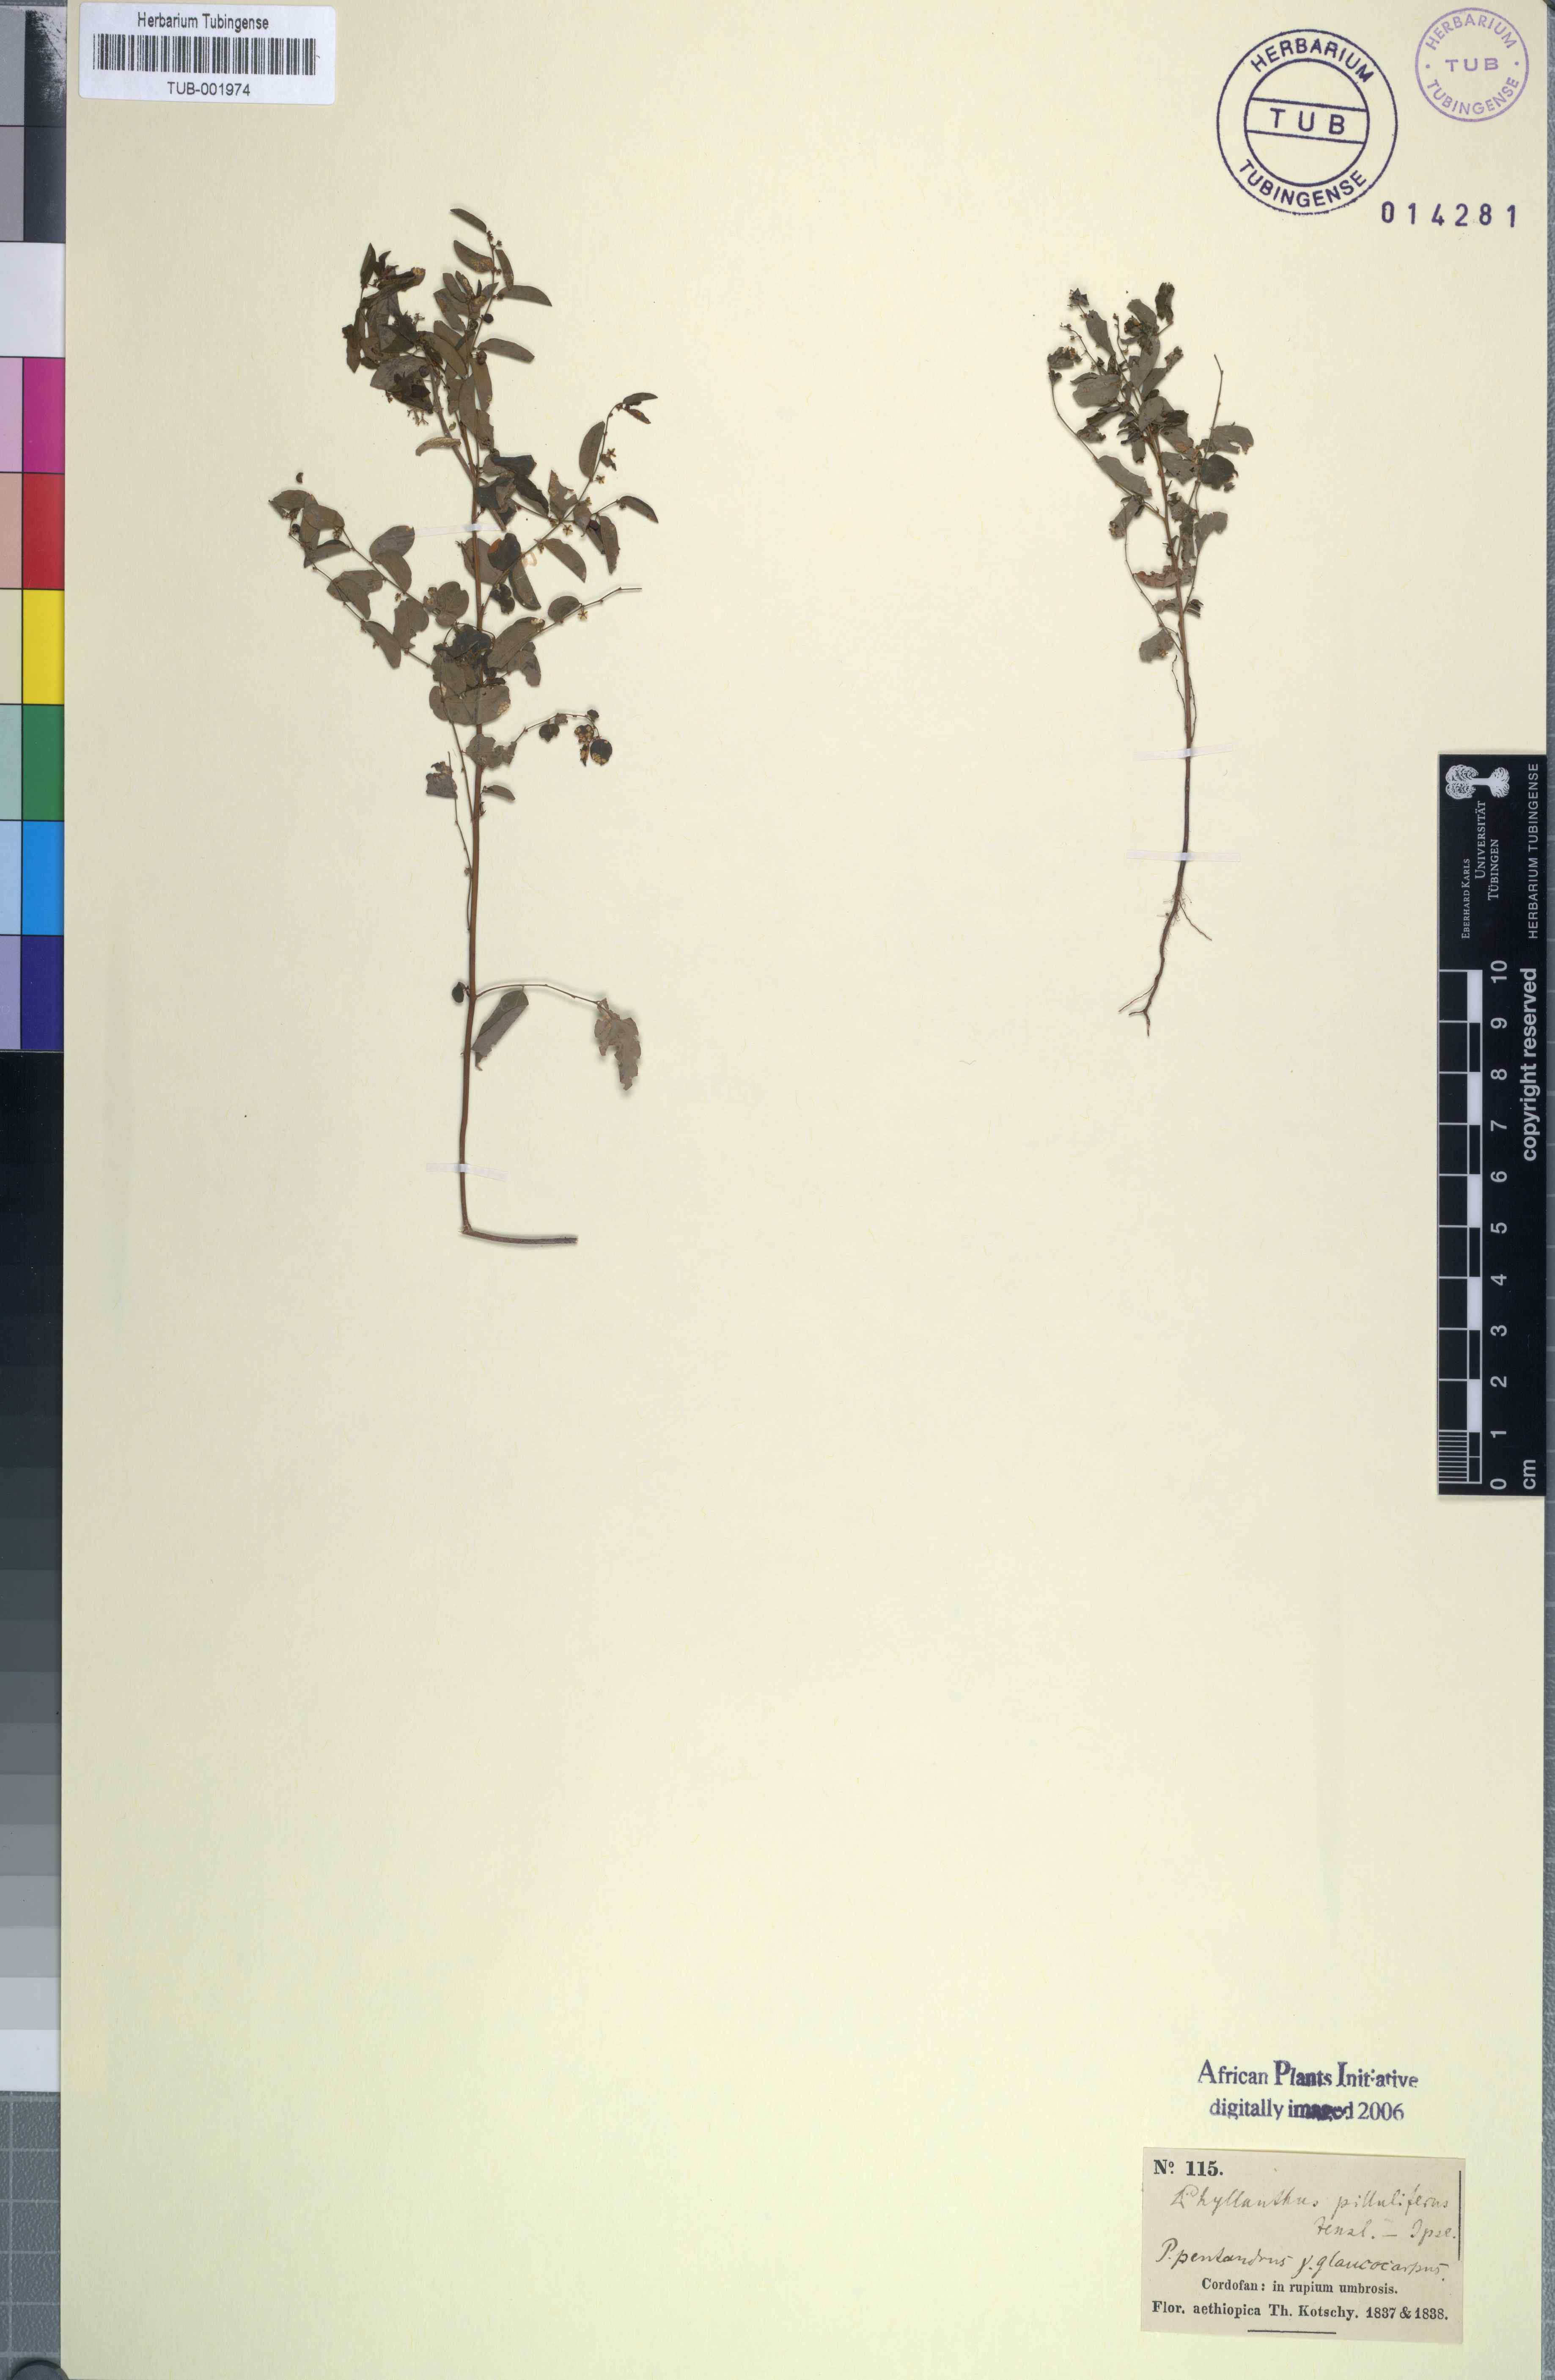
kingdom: Plantae
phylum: Tracheophyta
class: Magnoliopsida
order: Malpighiales
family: Phyllanthaceae
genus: Phyllanthus
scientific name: Phyllanthus pentandrus
